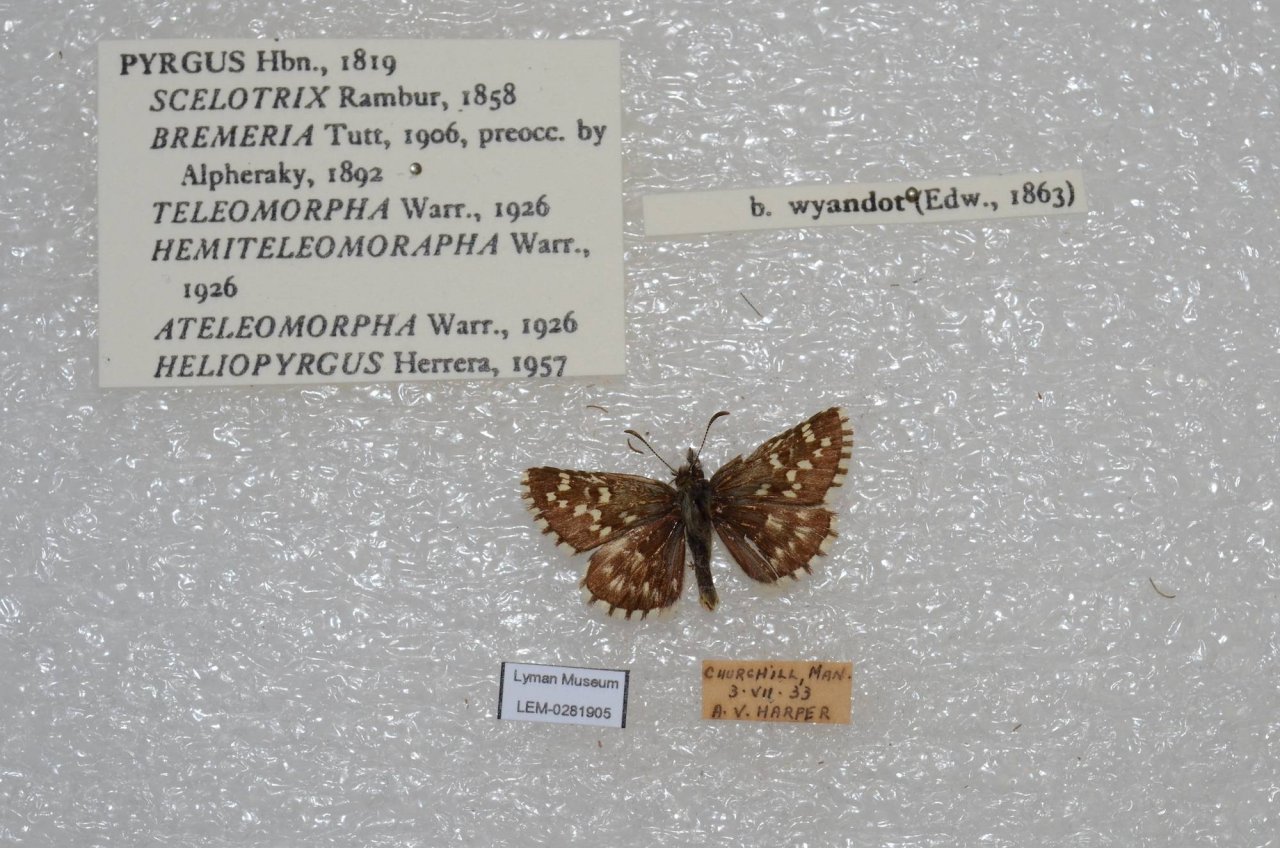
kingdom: Animalia
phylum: Arthropoda
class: Insecta
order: Lepidoptera
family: Hesperiidae
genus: Pyrgus
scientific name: Pyrgus centaureae
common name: Grizzled Skipper
